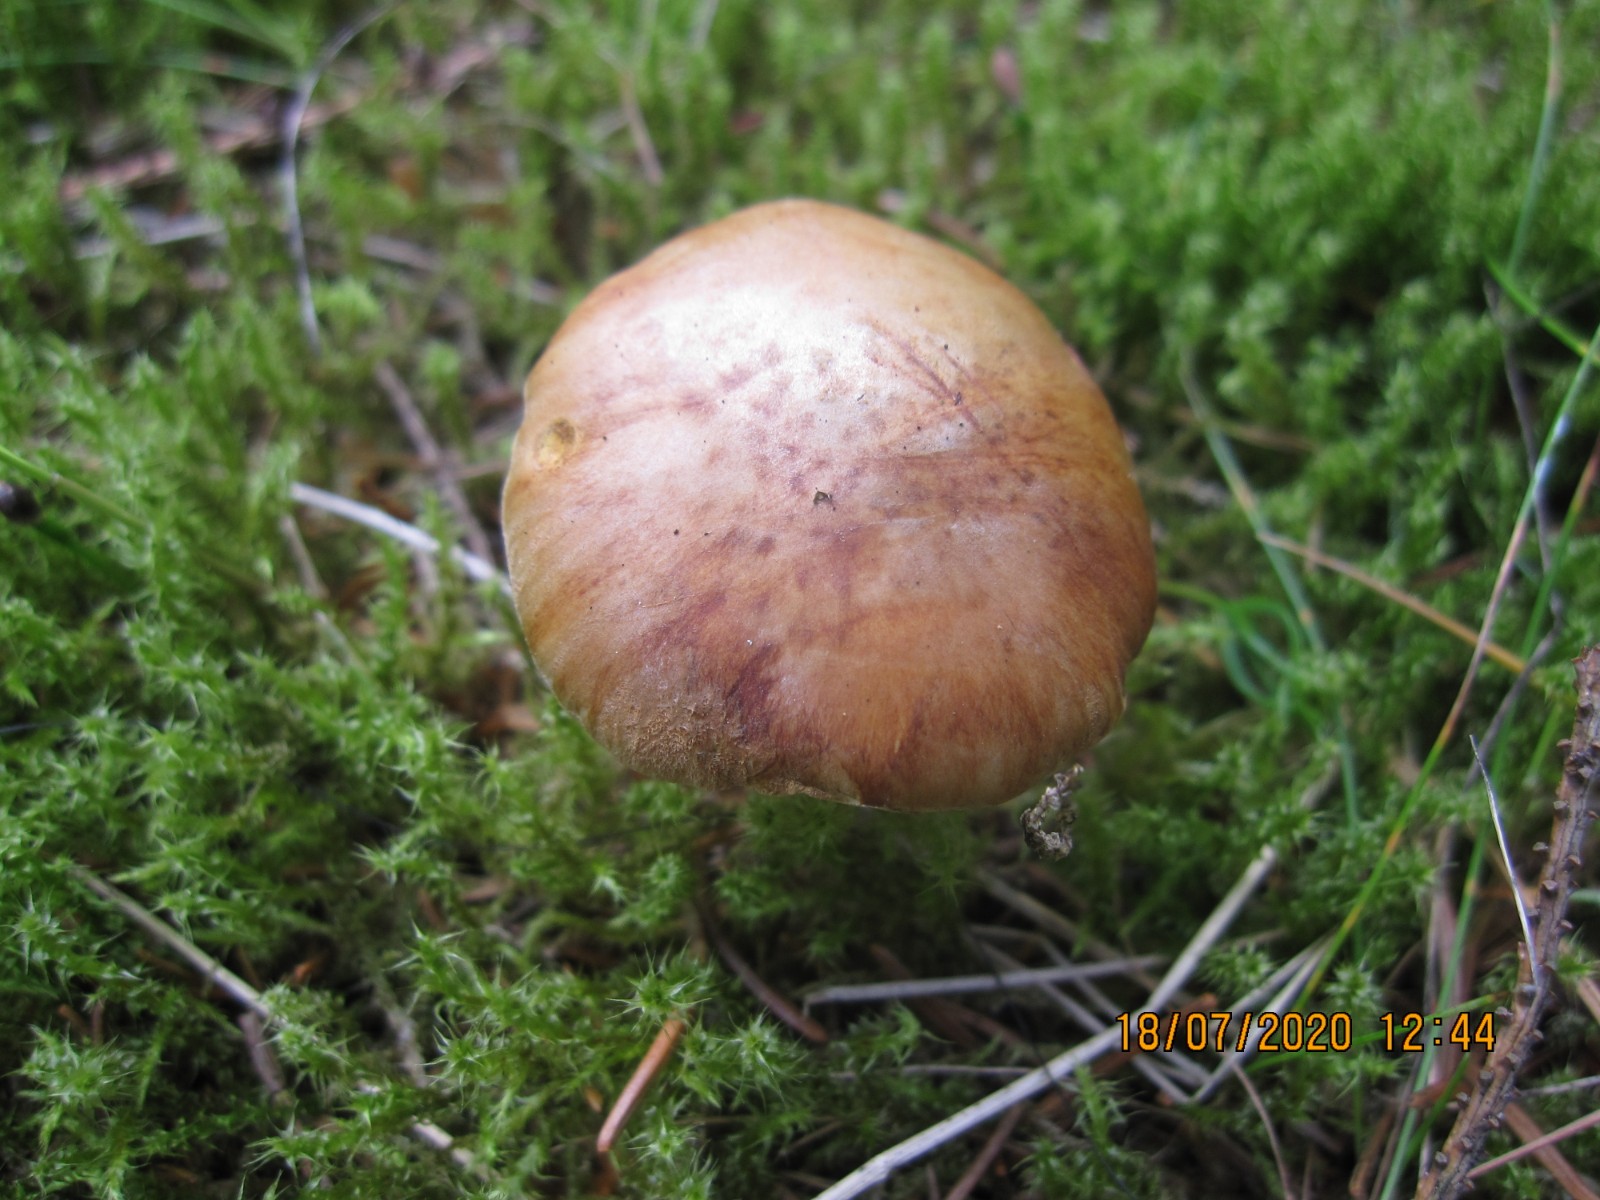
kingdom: Fungi
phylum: Basidiomycota
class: Agaricomycetes
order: Boletales
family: Boletaceae
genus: Chalciporus
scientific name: Chalciporus piperatus
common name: peberrørhat
